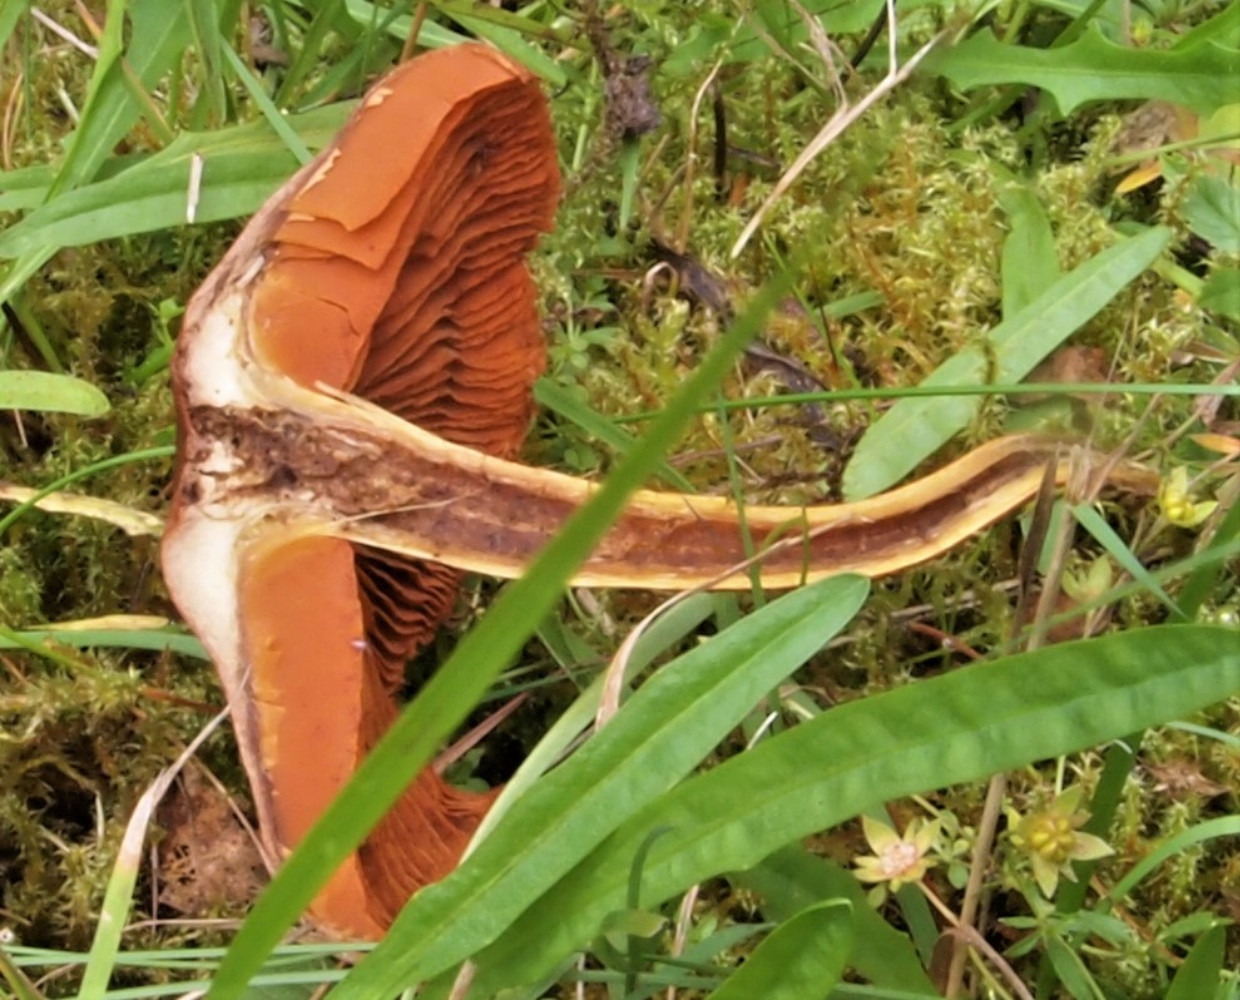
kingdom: Fungi
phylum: Basidiomycota
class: Agaricomycetes
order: Agaricales
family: Cortinariaceae
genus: Cortinarius
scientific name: Cortinarius
